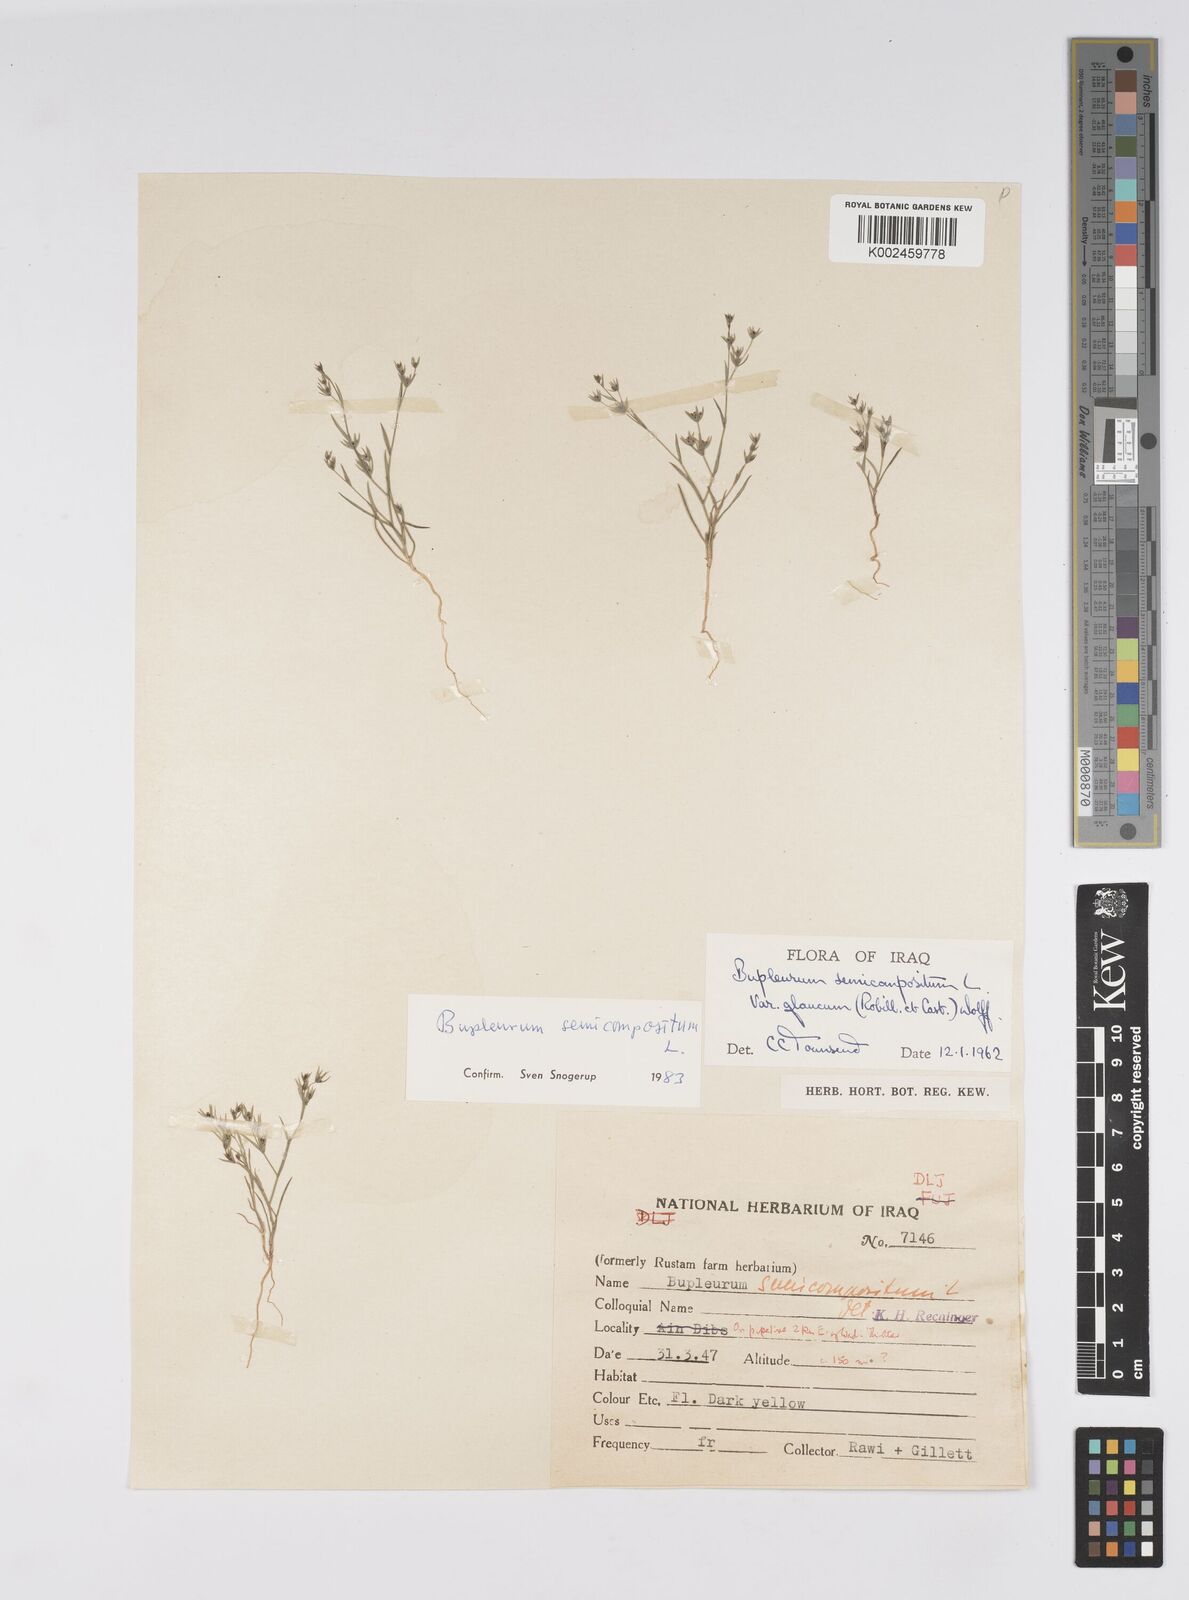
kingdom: Plantae
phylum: Tracheophyta
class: Magnoliopsida
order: Apiales
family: Apiaceae
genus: Bupleurum
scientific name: Bupleurum semicompositum
